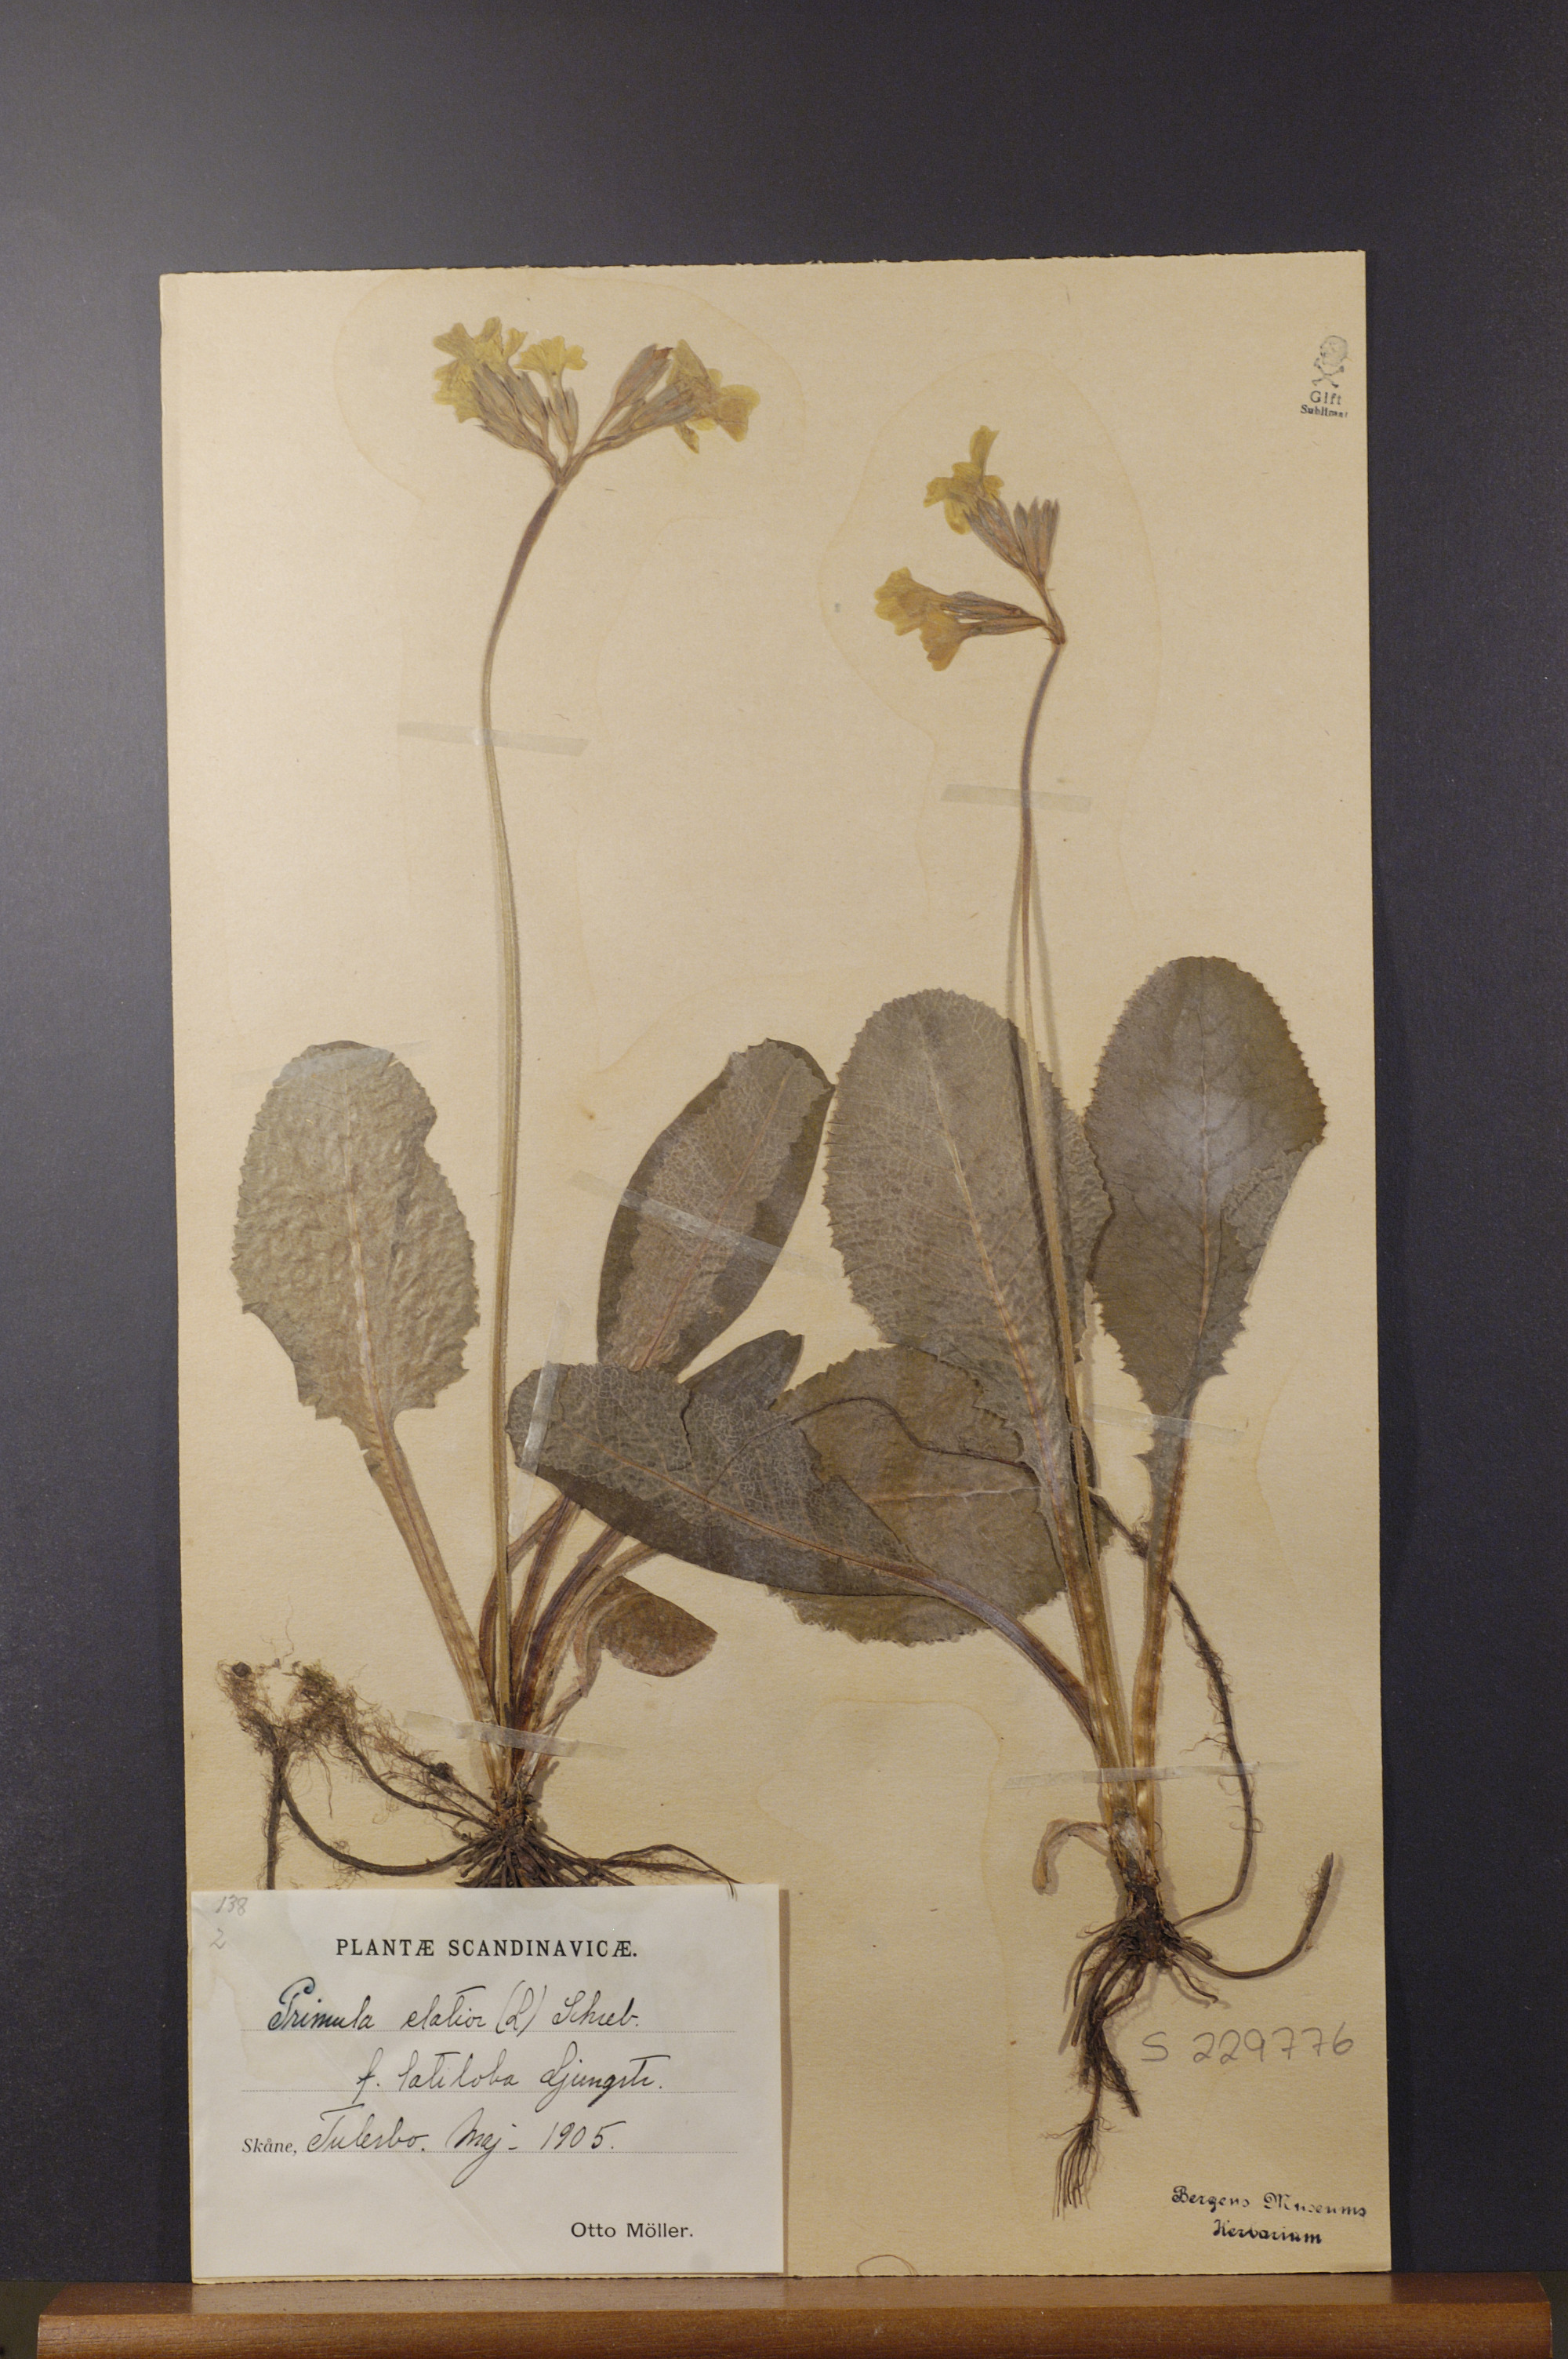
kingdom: Plantae
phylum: Tracheophyta
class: Magnoliopsida
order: Ericales
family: Primulaceae
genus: Primula
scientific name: Primula elatior
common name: Oxlip
